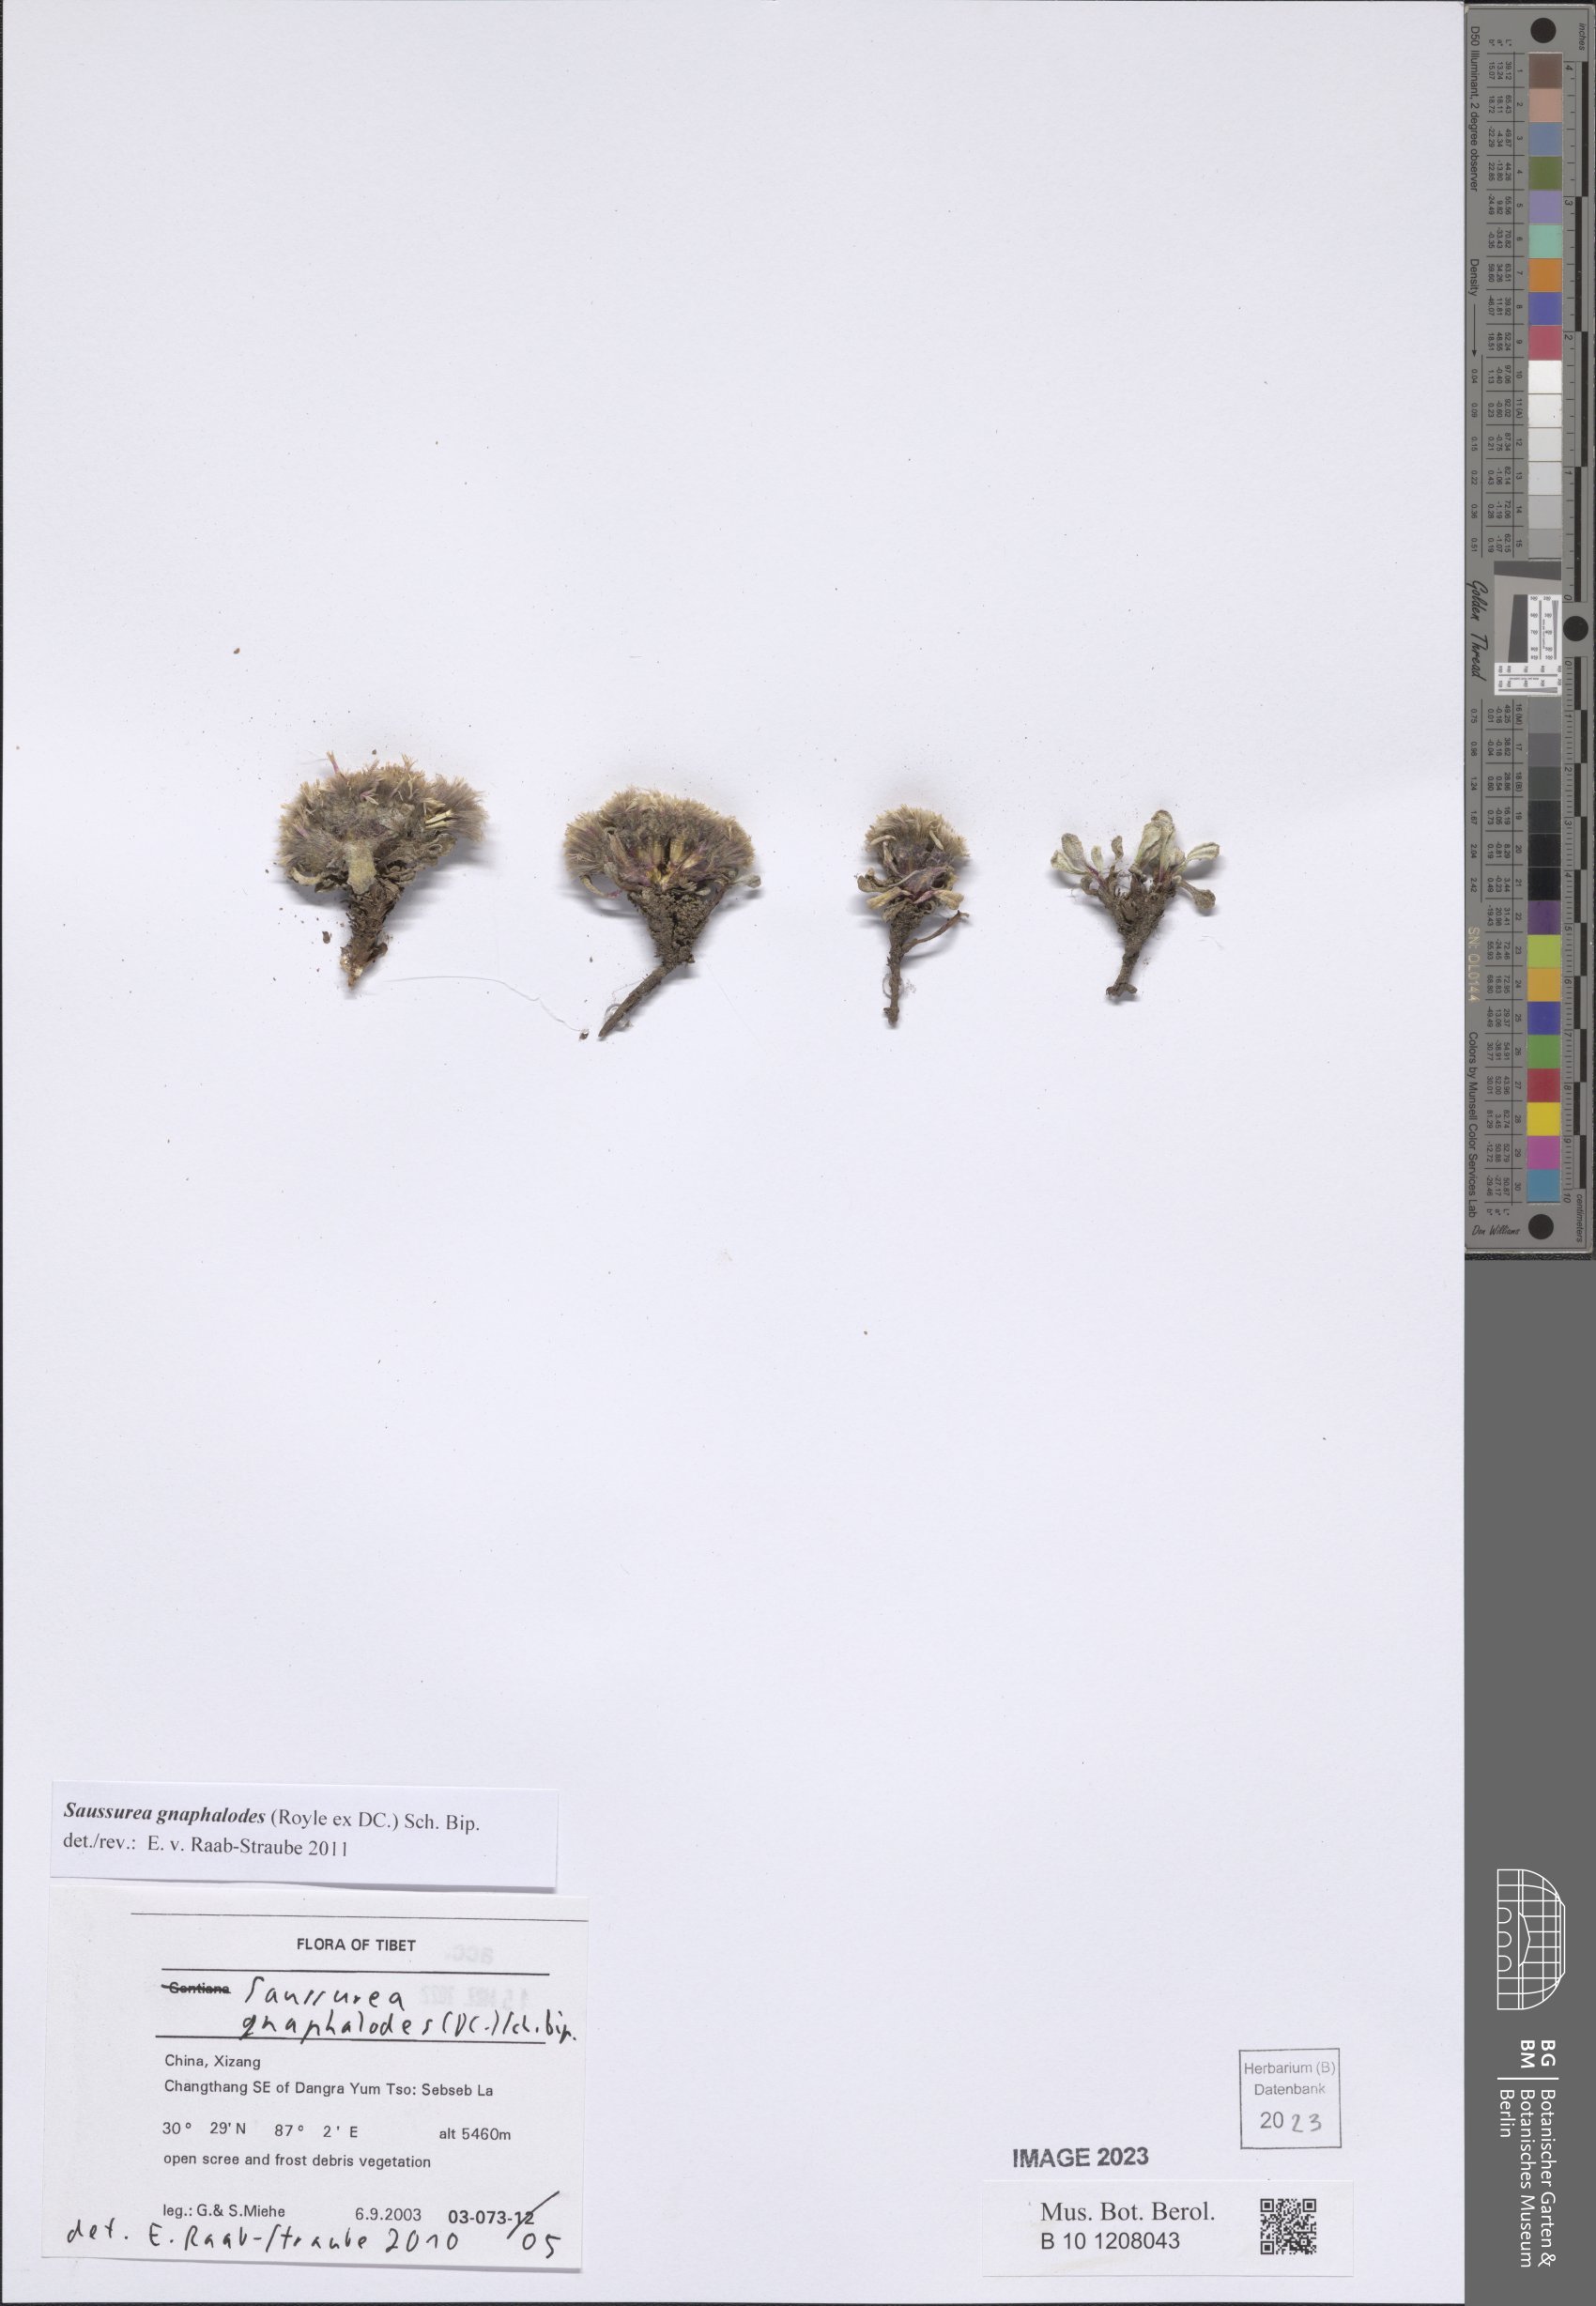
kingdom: Plantae
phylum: Tracheophyta
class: Magnoliopsida
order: Asterales
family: Asteraceae
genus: Saussurea
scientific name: Saussurea gnaphalodes
